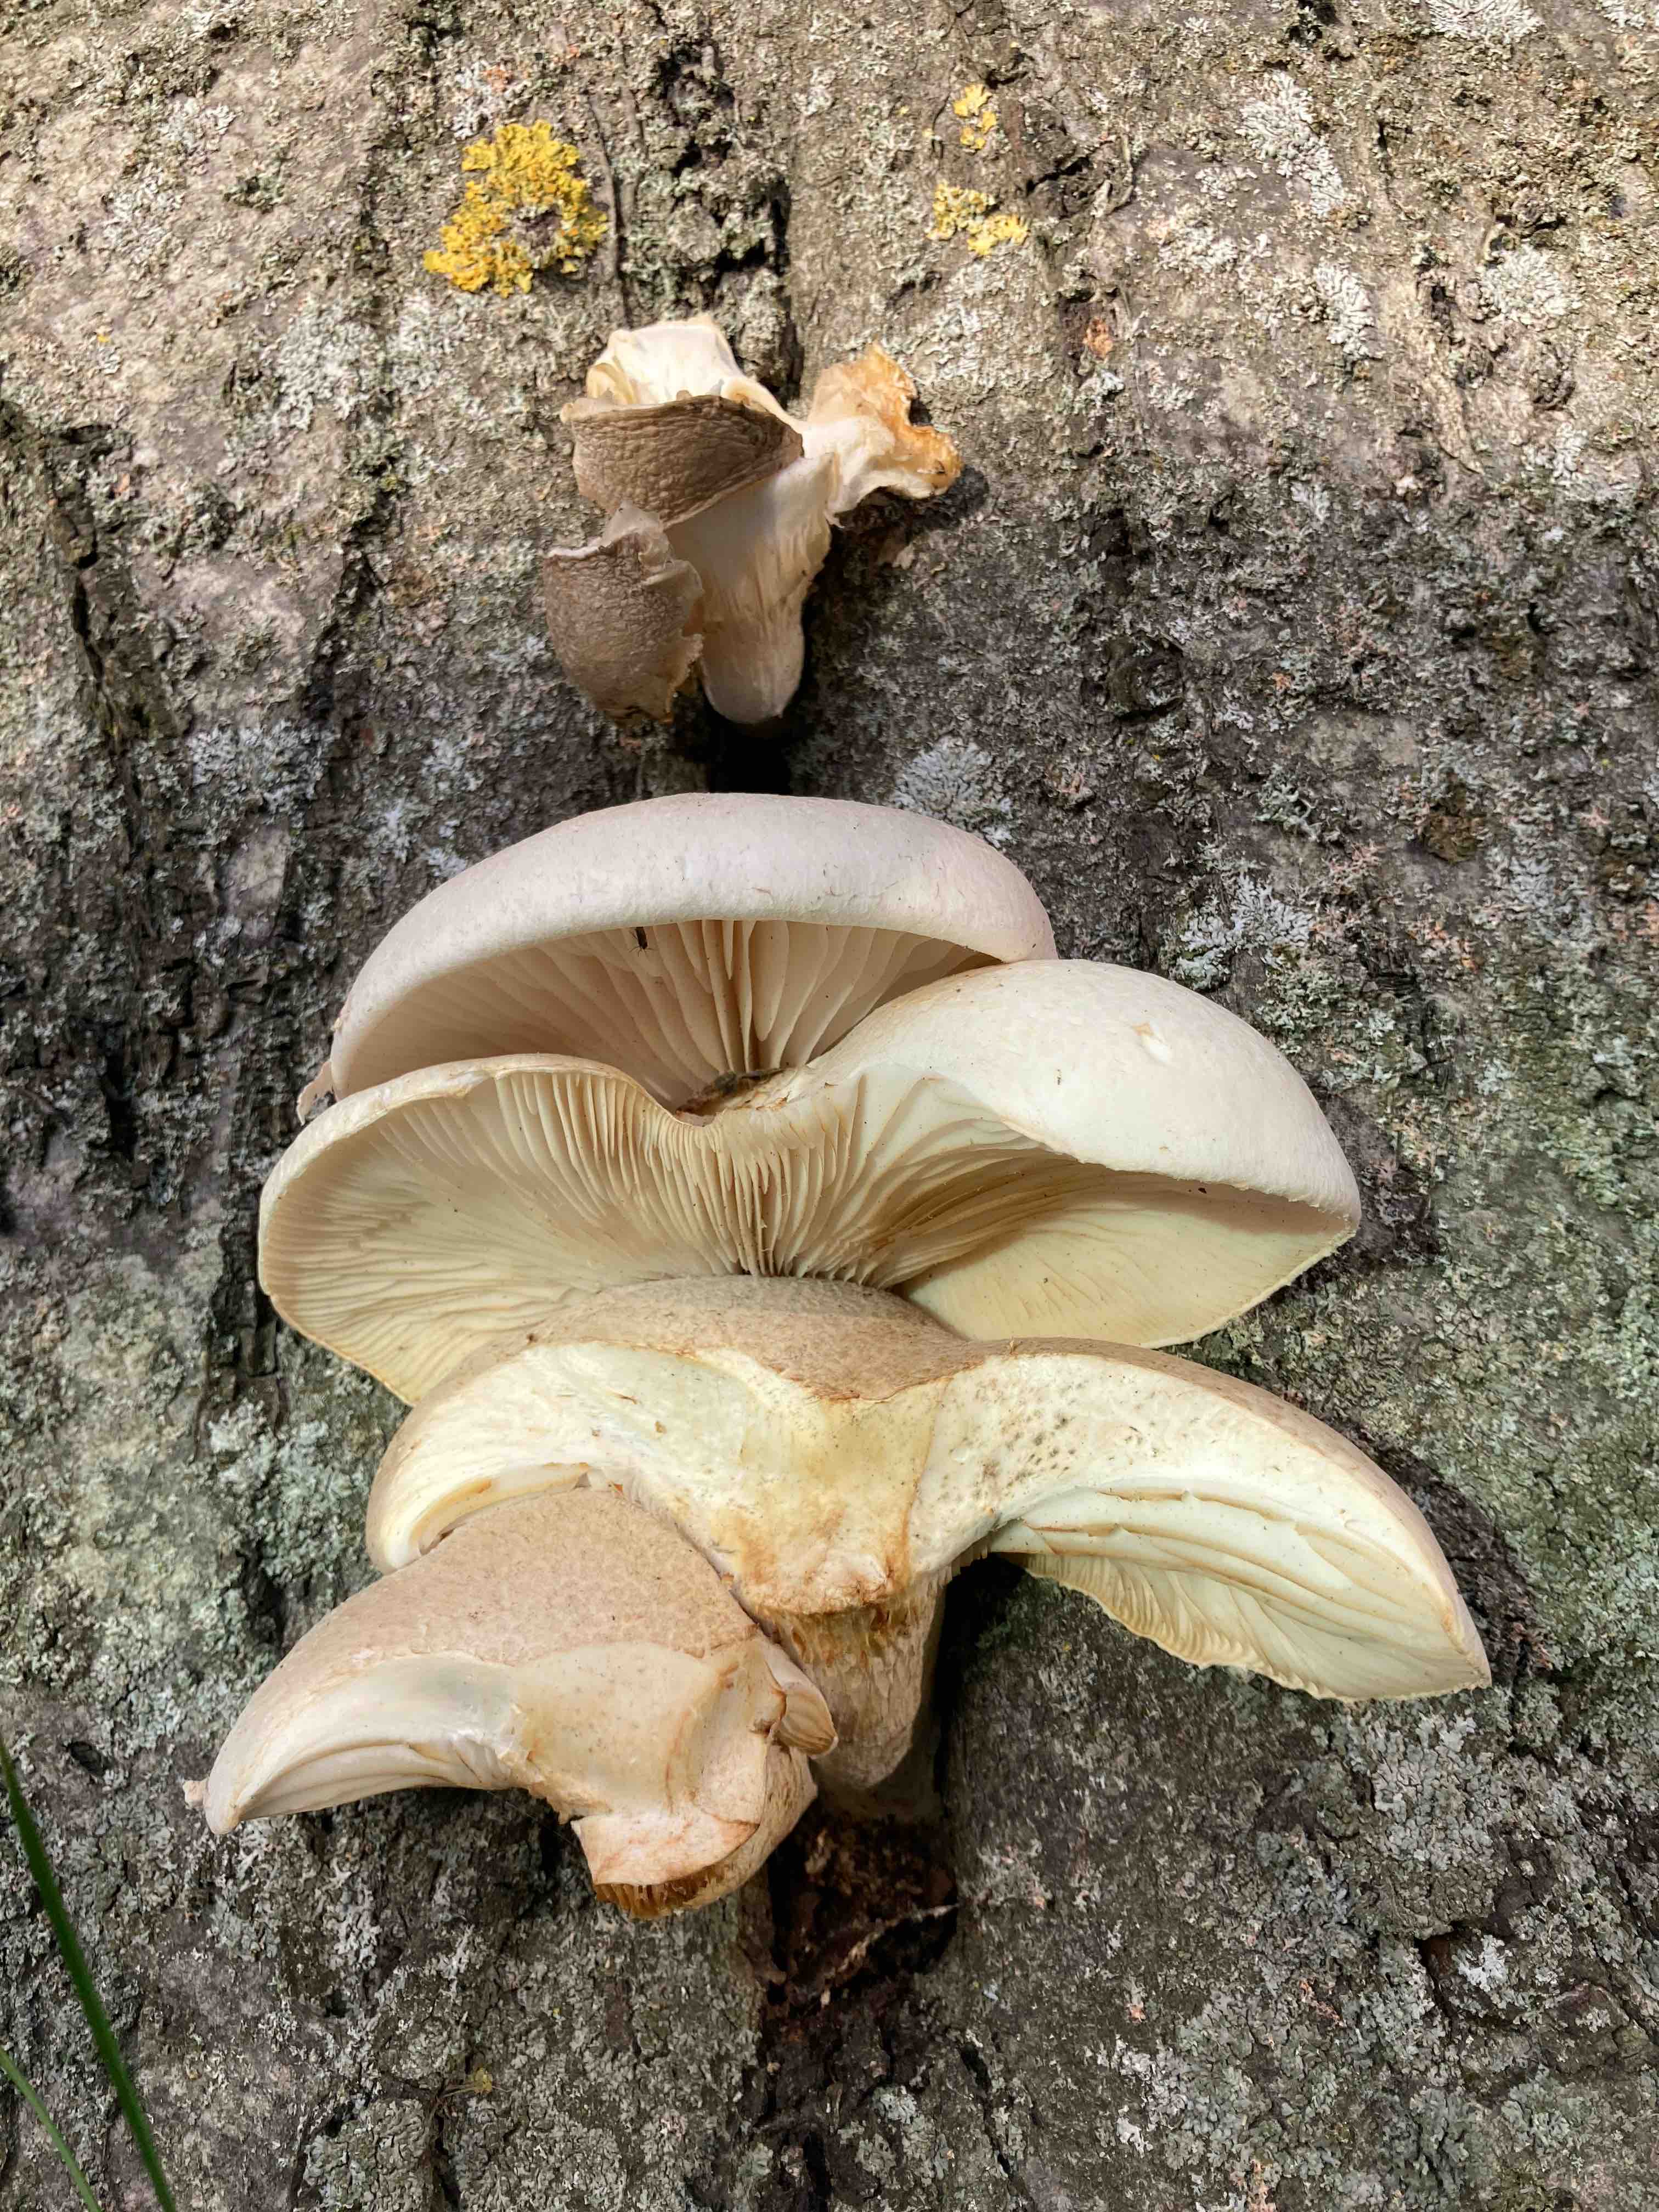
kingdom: Fungi
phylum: Basidiomycota
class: Agaricomycetes
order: Agaricales
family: Pleurotaceae
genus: Pleurotus
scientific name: Pleurotus dryinus
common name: korkagtig østershat
